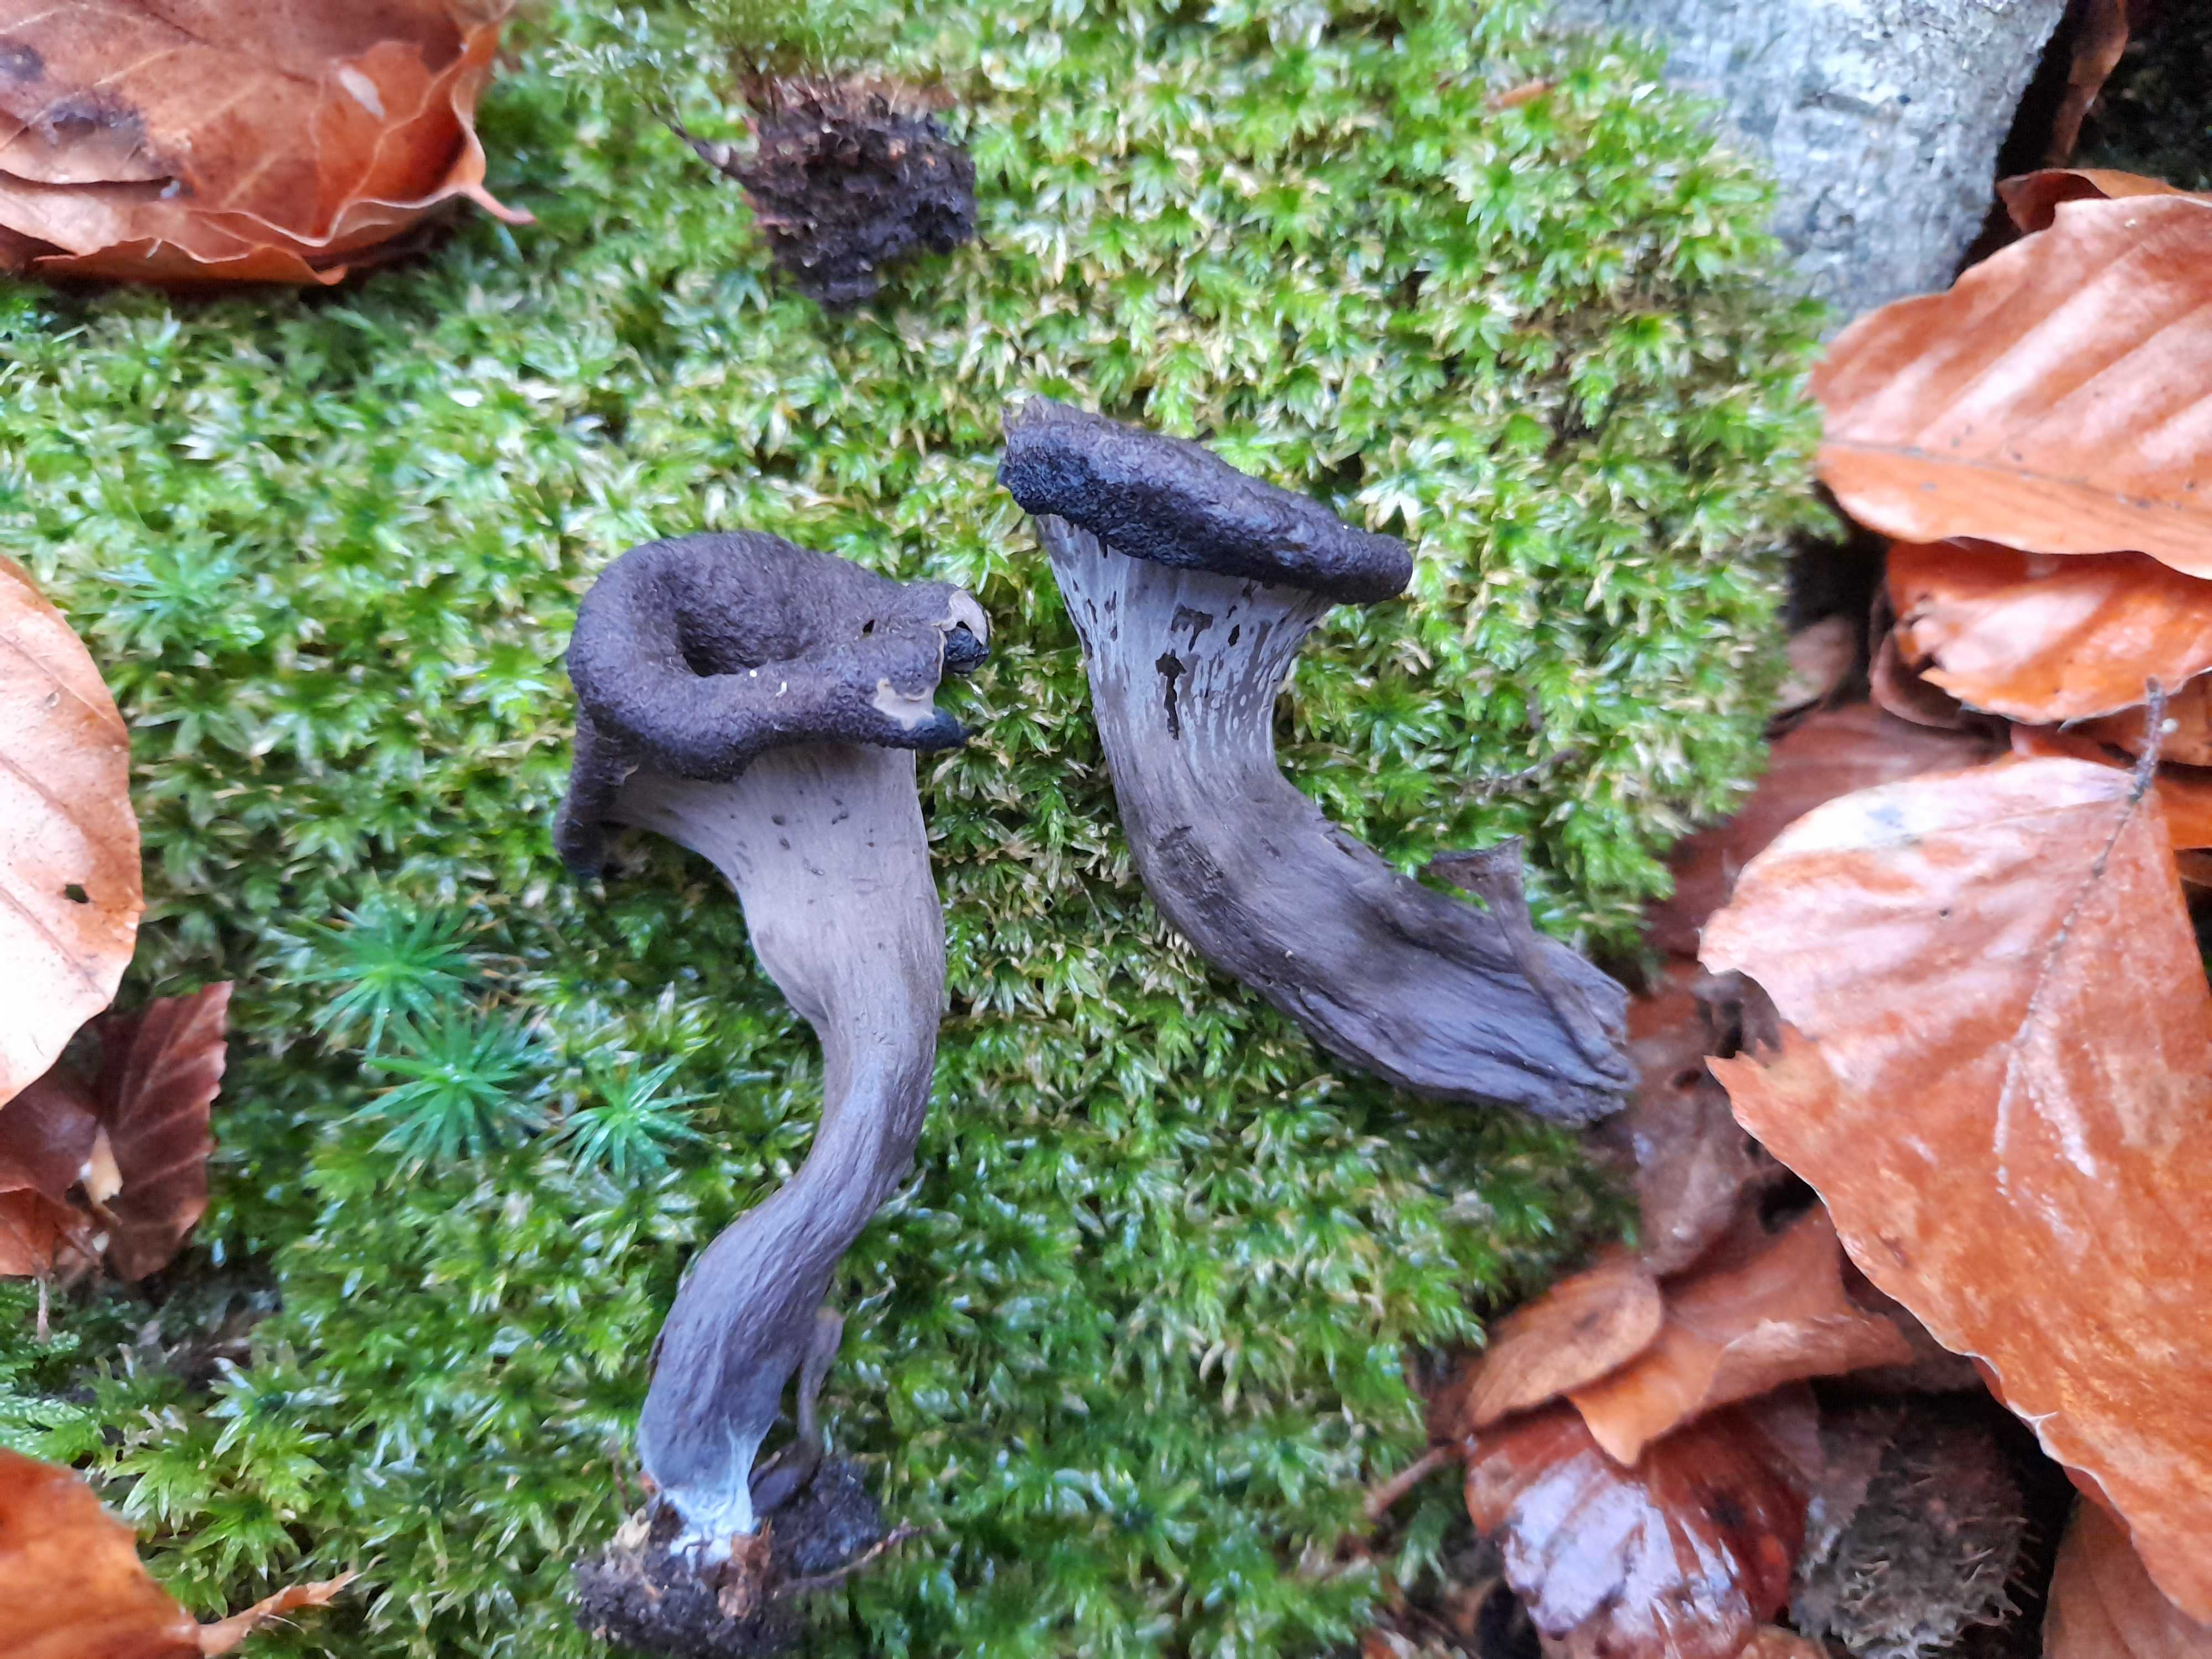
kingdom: Fungi
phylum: Basidiomycota
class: Agaricomycetes
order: Cantharellales
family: Hydnaceae
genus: Craterellus
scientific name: Craterellus cornucopioides
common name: trompetsvamp
